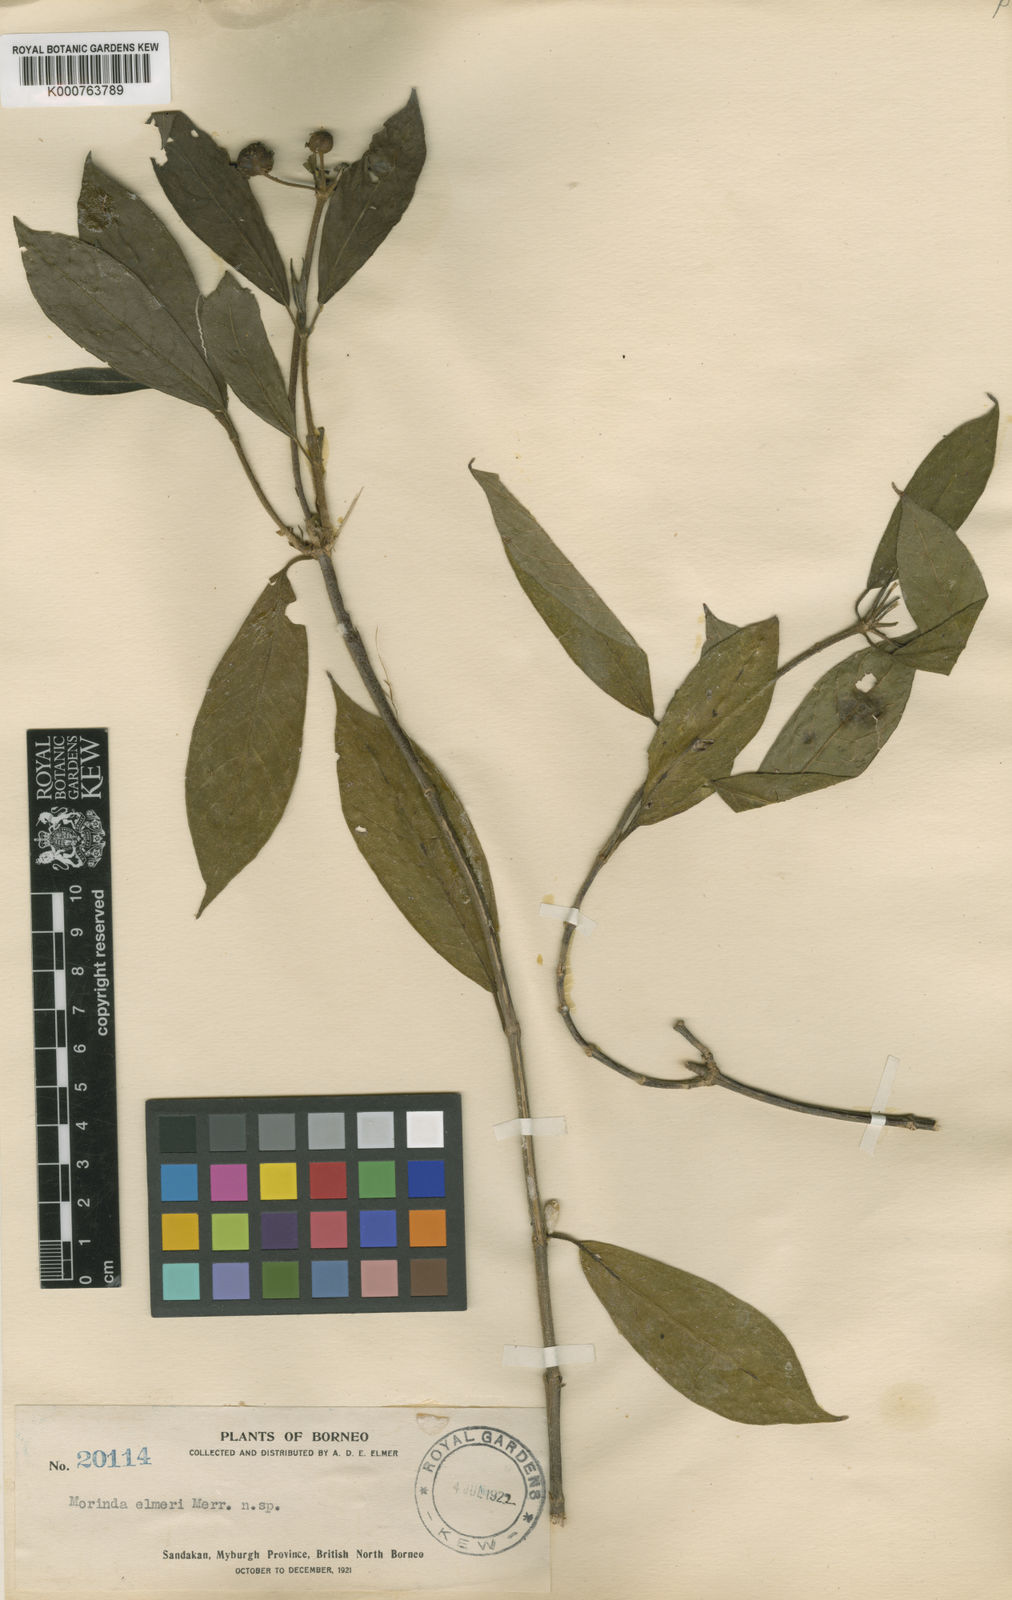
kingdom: Plantae
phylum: Tracheophyta
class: Magnoliopsida
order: Gentianales
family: Rubiaceae
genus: Gynochthodes
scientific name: Gynochthodes elmeri
